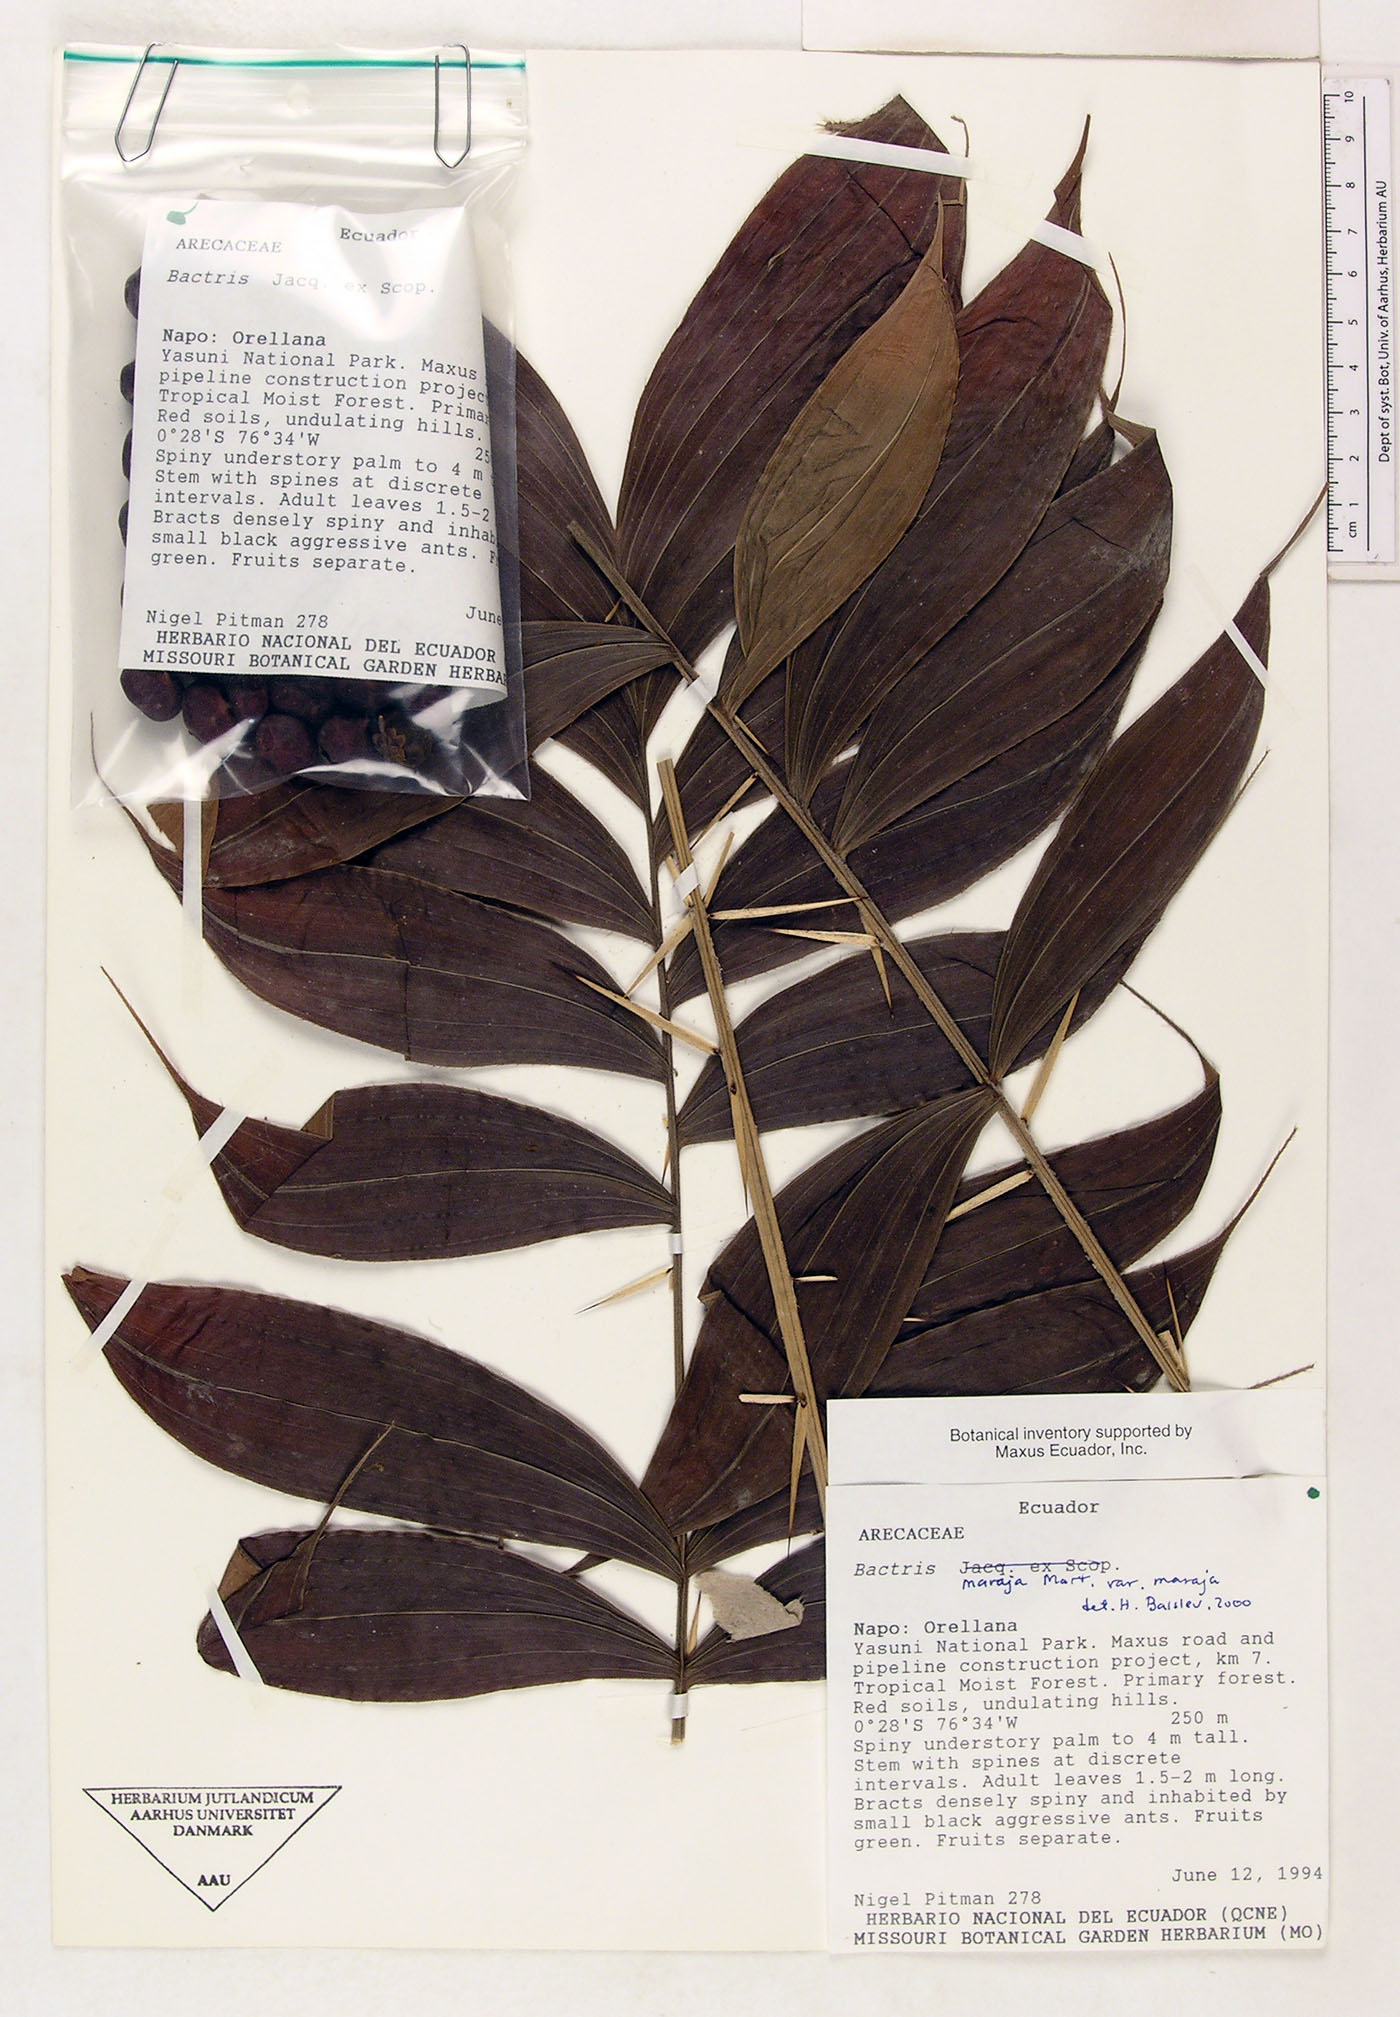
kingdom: Plantae
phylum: Tracheophyta
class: Liliopsida
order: Arecales
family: Arecaceae
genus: Bactris
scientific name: Bactris maraja
